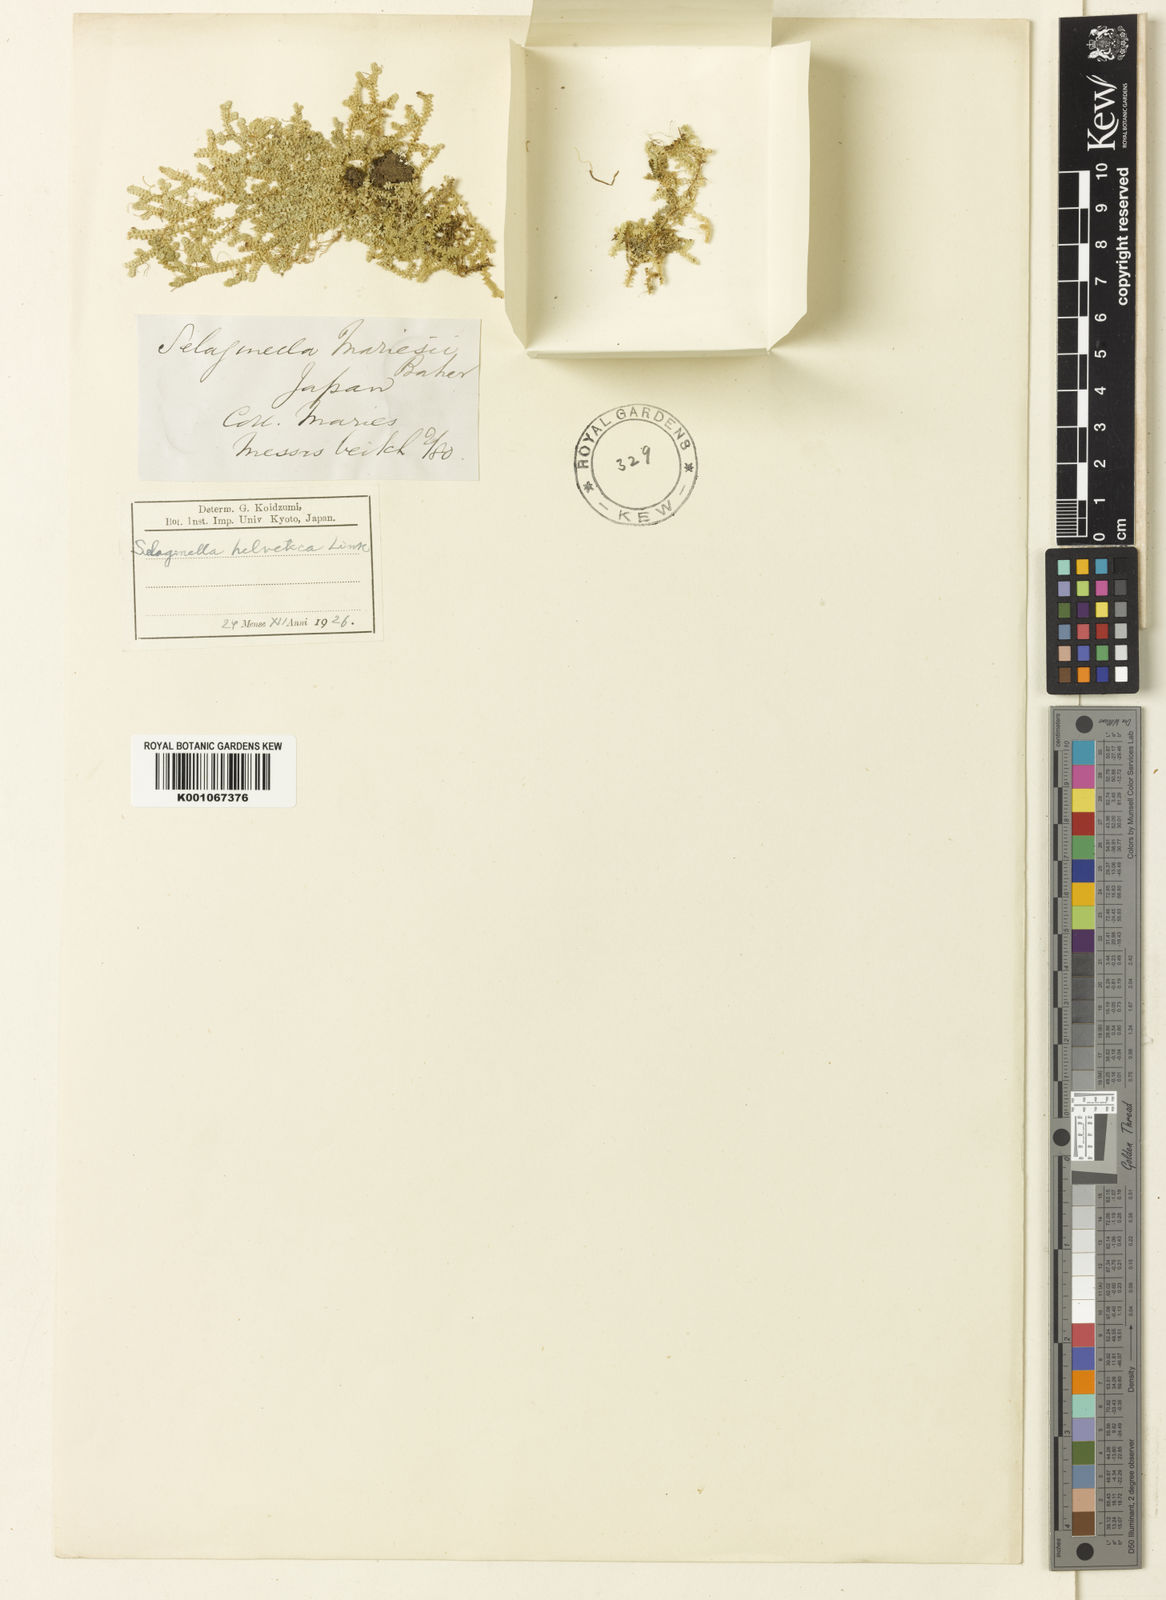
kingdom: Plantae
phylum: Tracheophyta
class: Lycopodiopsida
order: Selaginellales
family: Selaginellaceae
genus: Selaginella
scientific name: Selaginella
